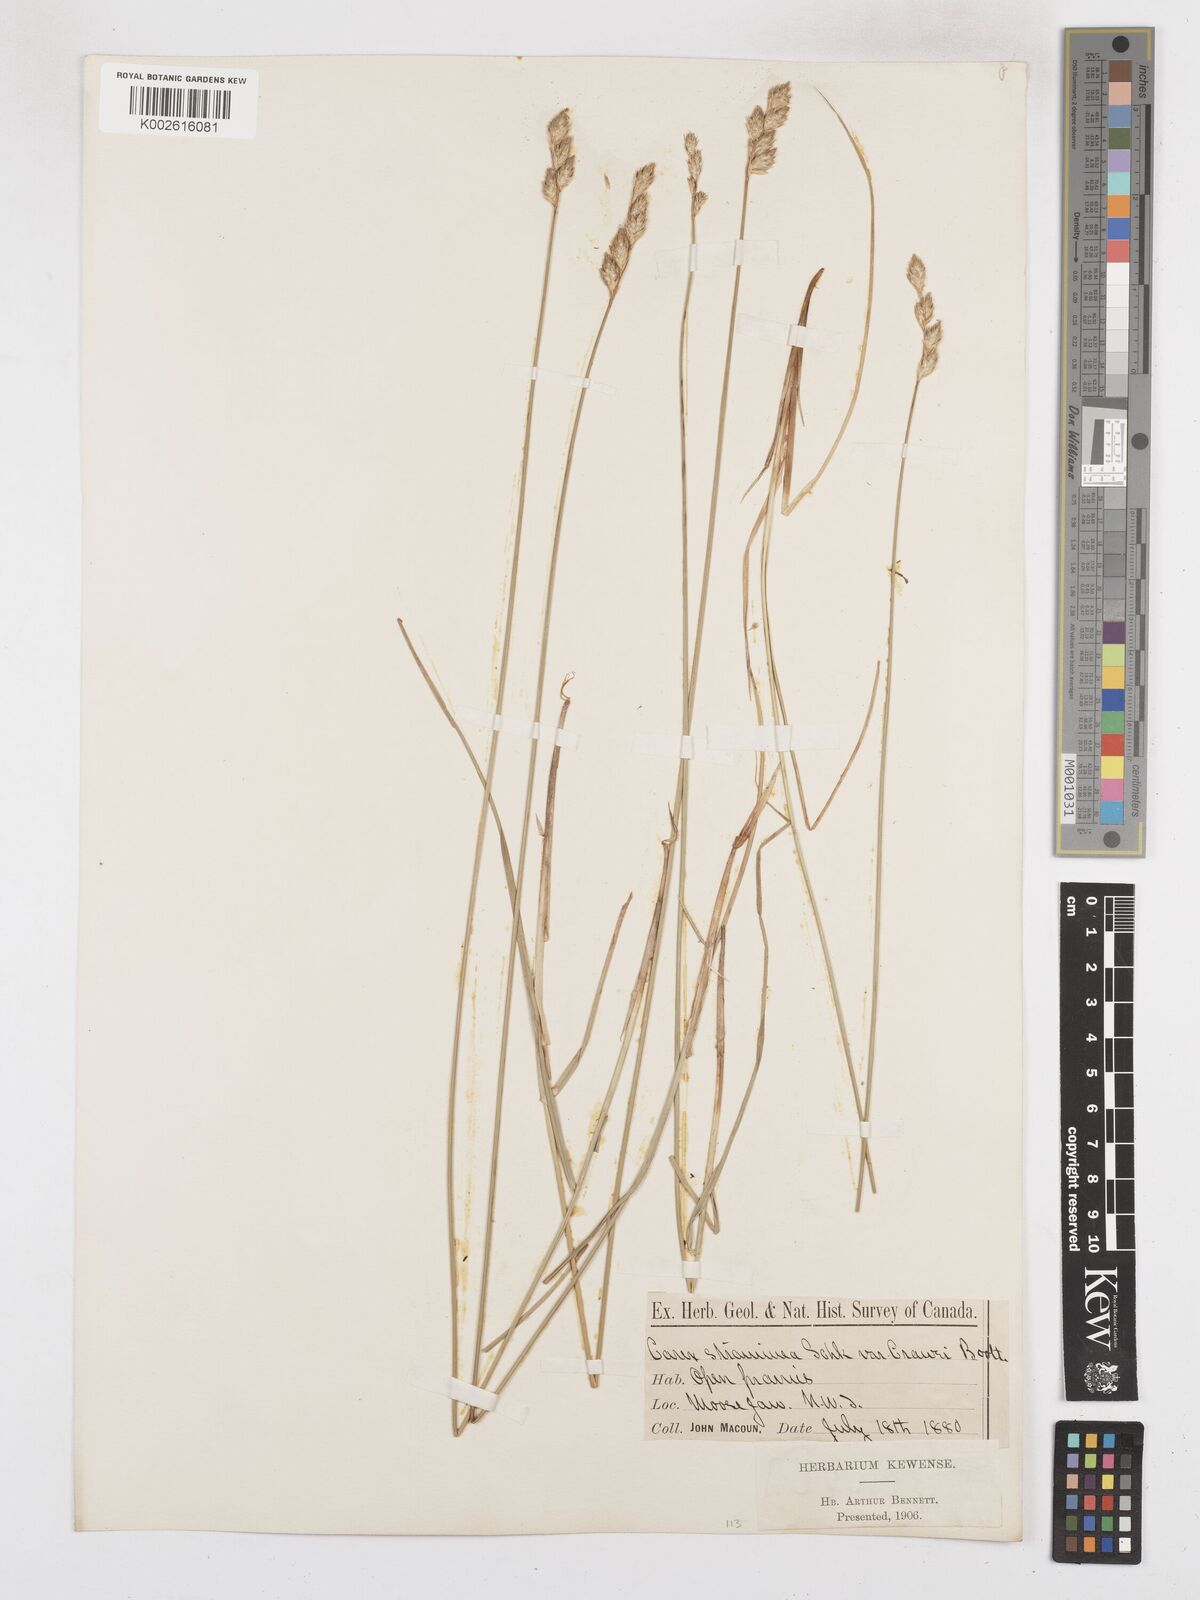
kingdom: Plantae
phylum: Tracheophyta
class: Liliopsida
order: Poales
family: Cyperaceae
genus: Carex
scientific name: Carex brevior
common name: Brevior sedge
